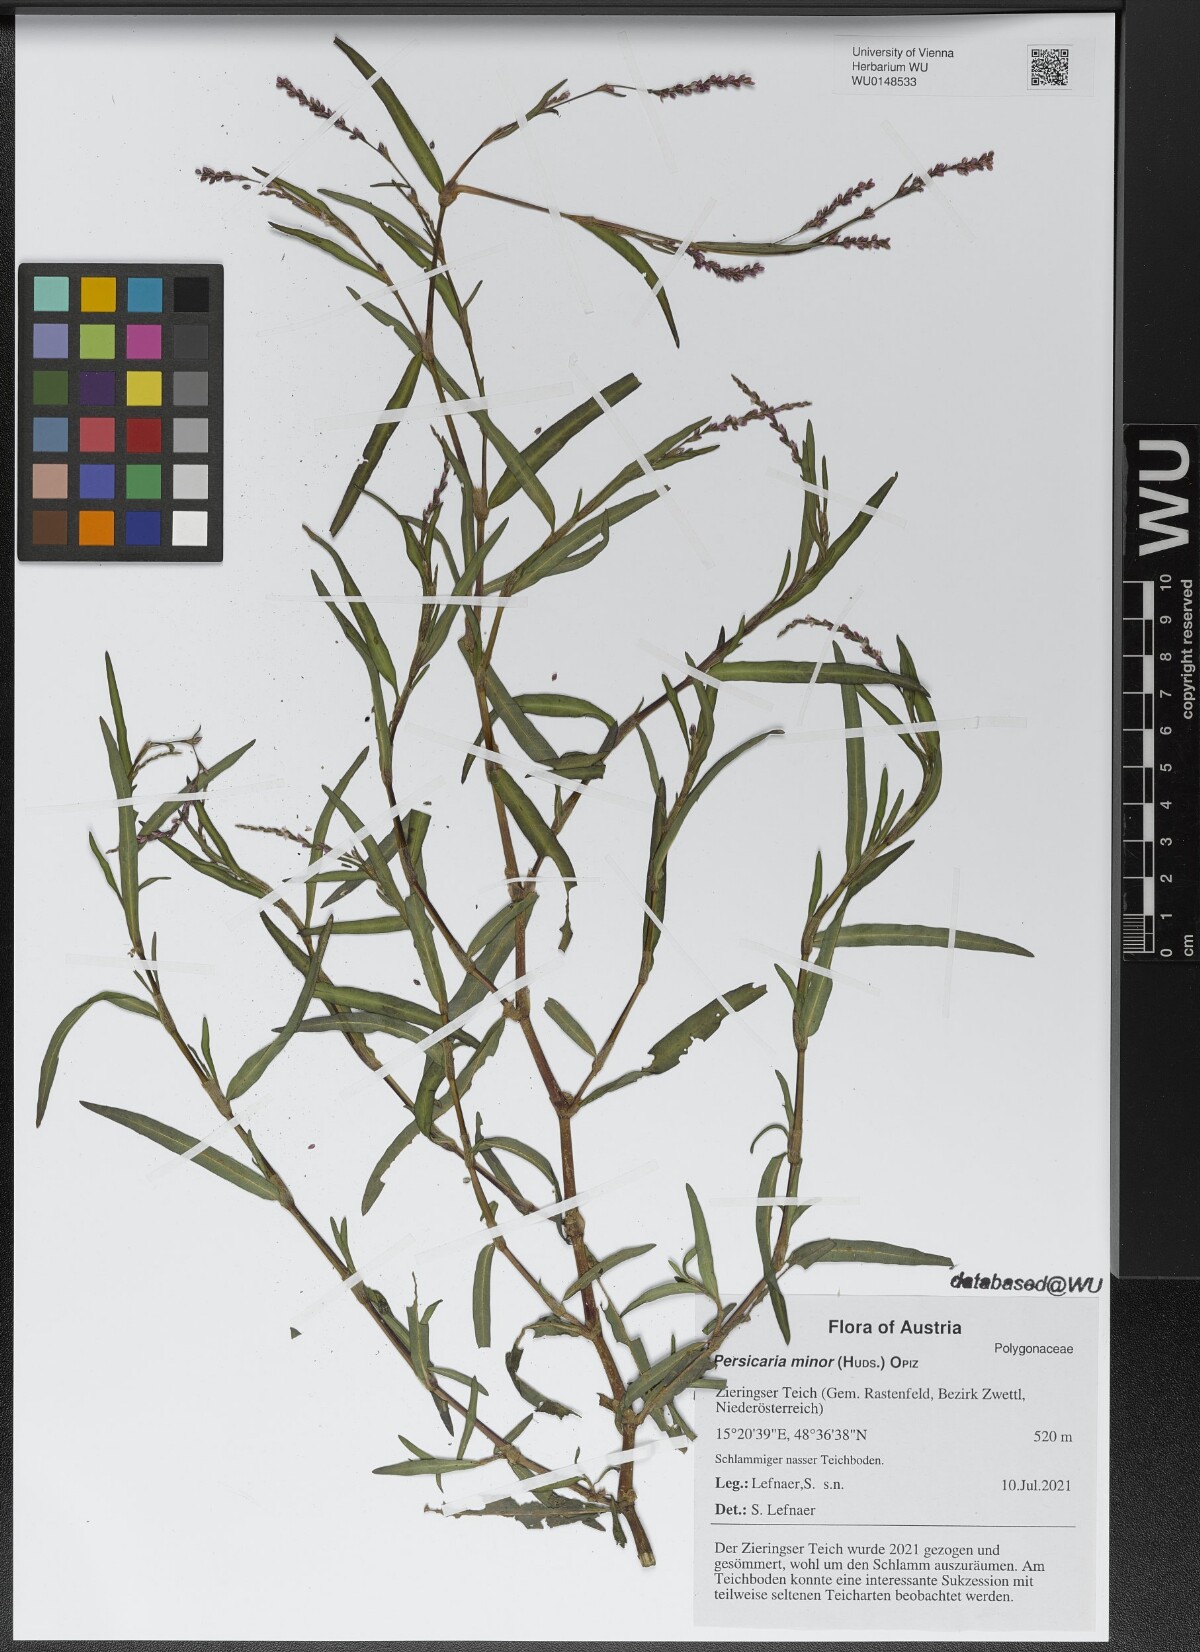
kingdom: Plantae
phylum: Tracheophyta
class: Magnoliopsida
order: Caryophyllales
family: Polygonaceae
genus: Persicaria
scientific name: Persicaria minor
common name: Small water-pepper
